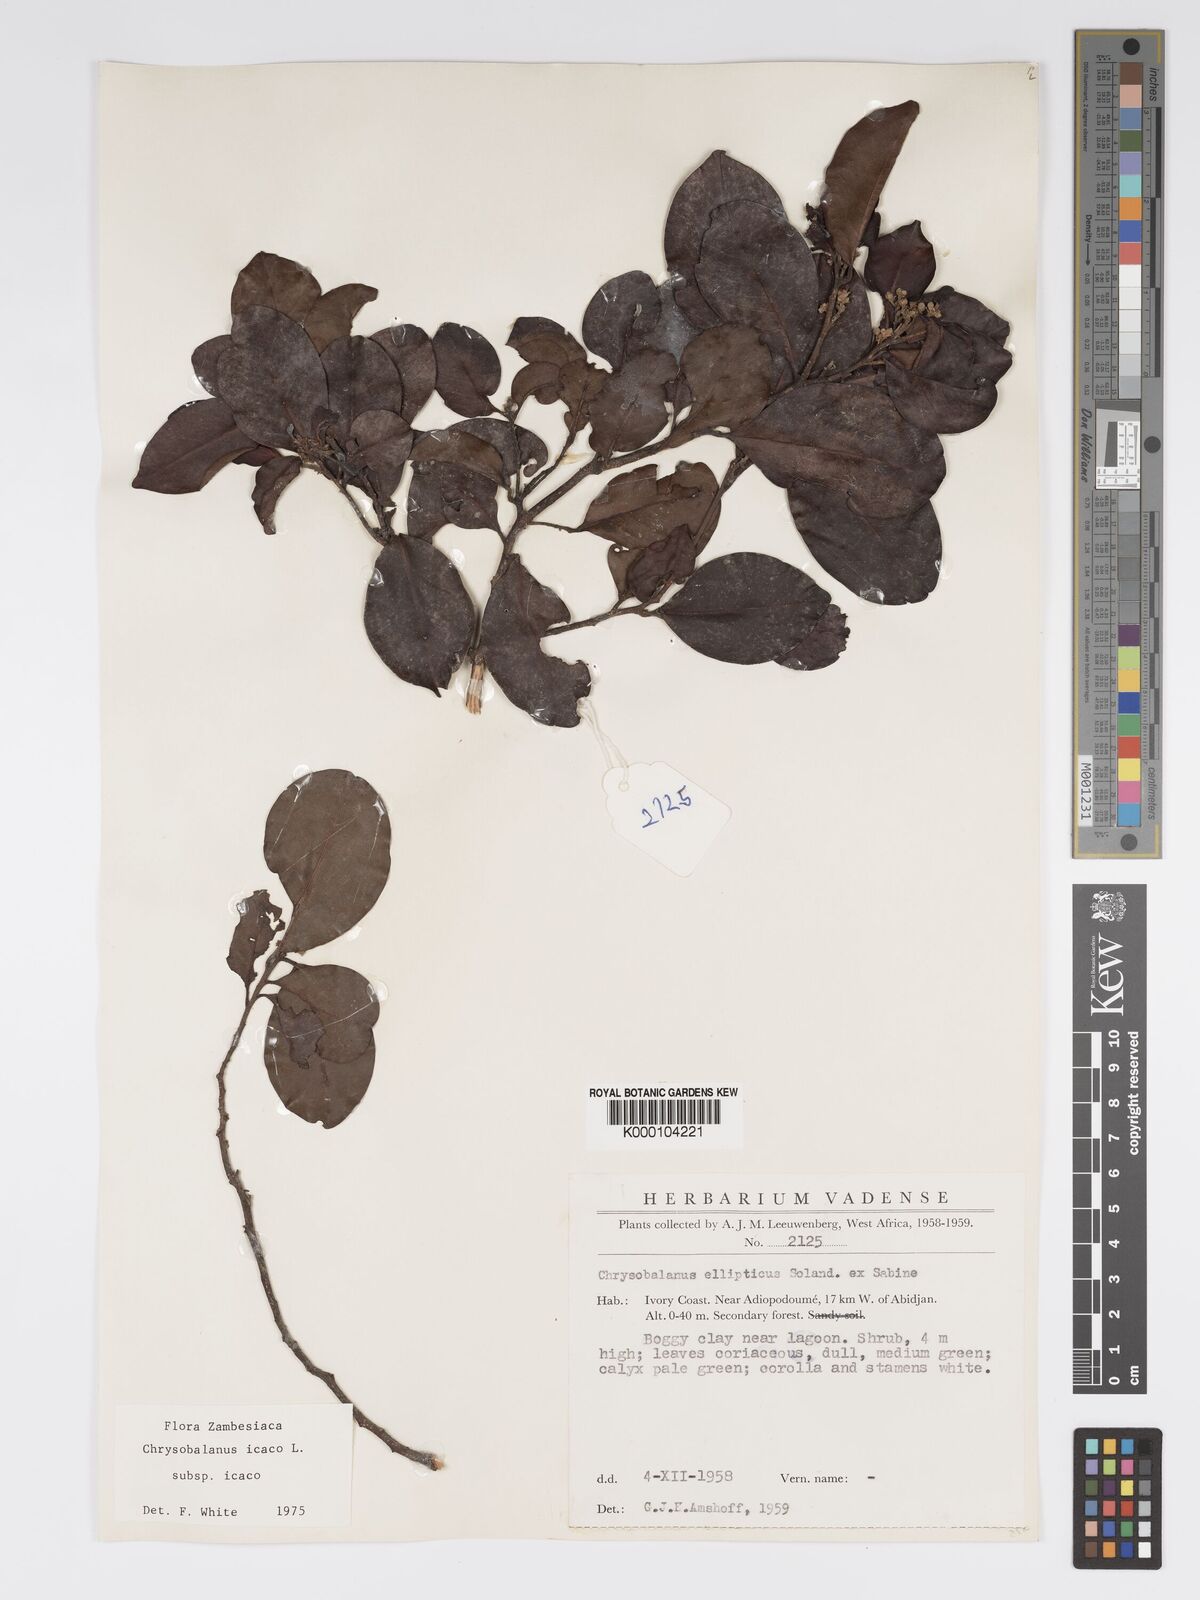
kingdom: Plantae
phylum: Tracheophyta
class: Magnoliopsida
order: Malpighiales
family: Chrysobalanaceae
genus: Chrysobalanus
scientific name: Chrysobalanus icaco
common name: Coco plum
